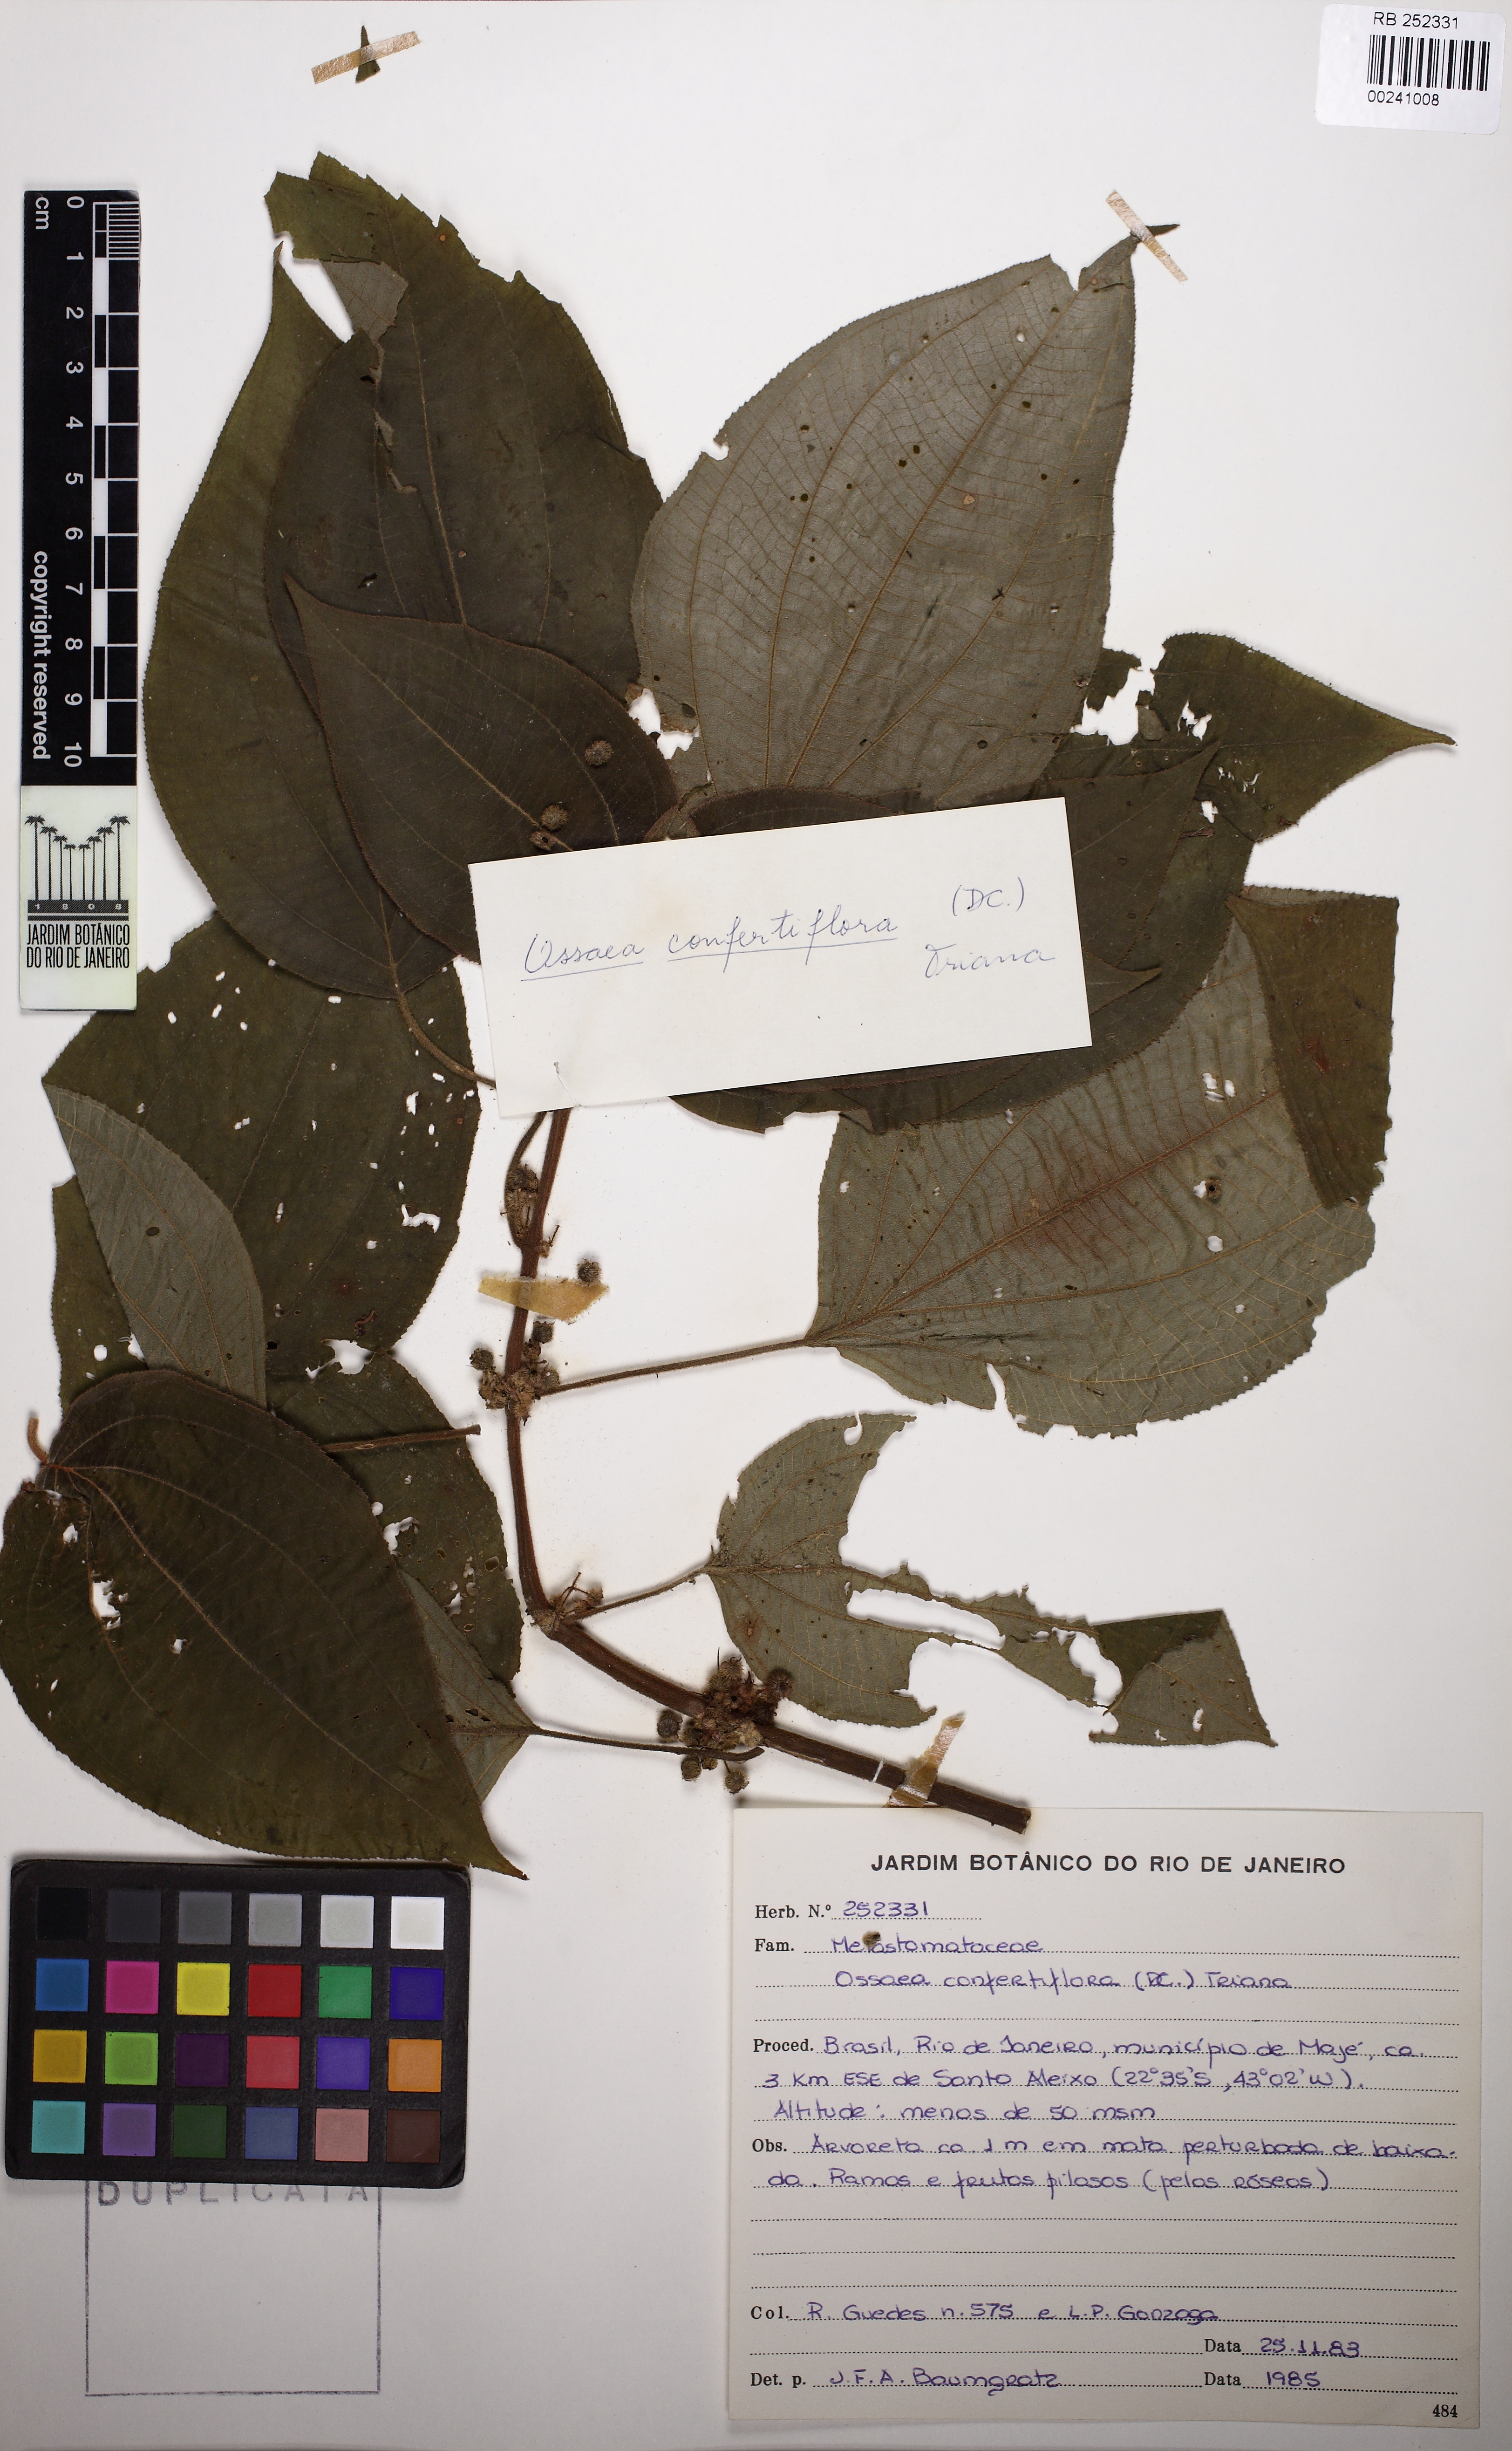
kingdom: Plantae
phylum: Tracheophyta
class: Magnoliopsida
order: Myrtales
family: Melastomataceae
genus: Miconia
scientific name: Miconia rubella
